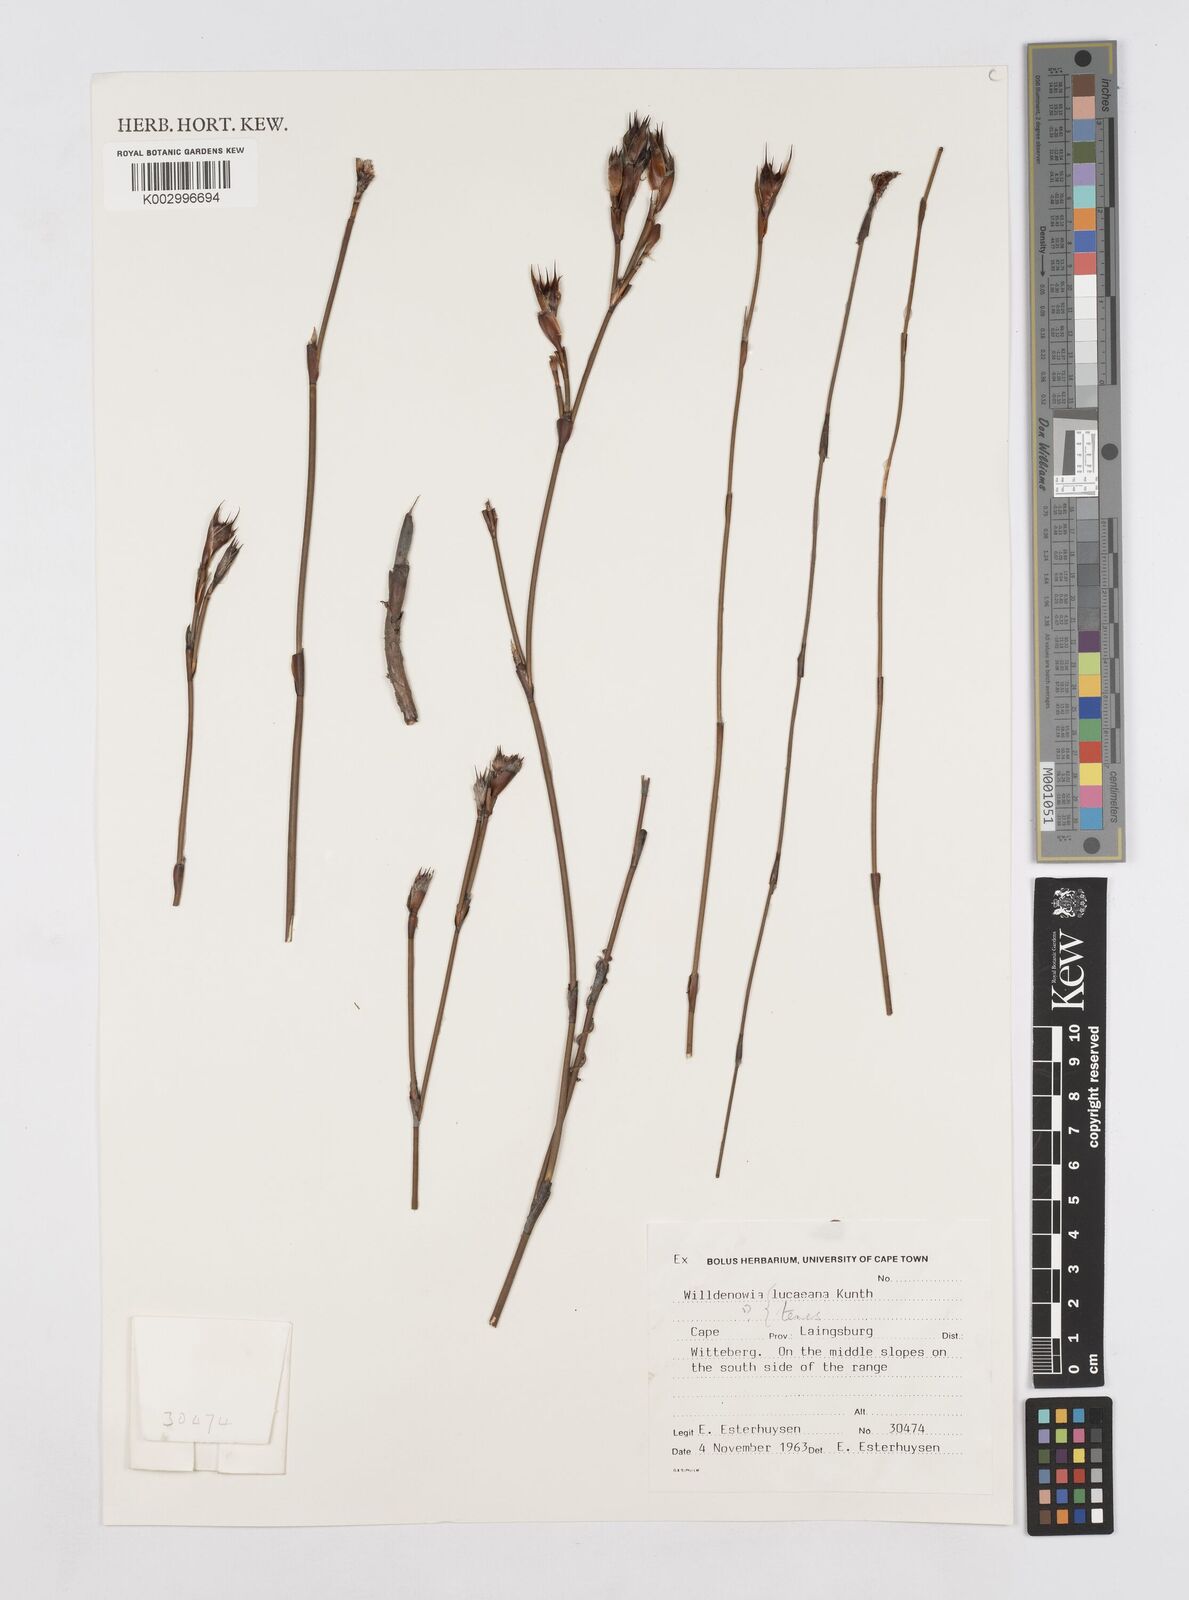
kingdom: Plantae
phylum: Tracheophyta
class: Liliopsida
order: Poales
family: Restionaceae
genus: Willdenowia
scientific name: Willdenowia glomerata
